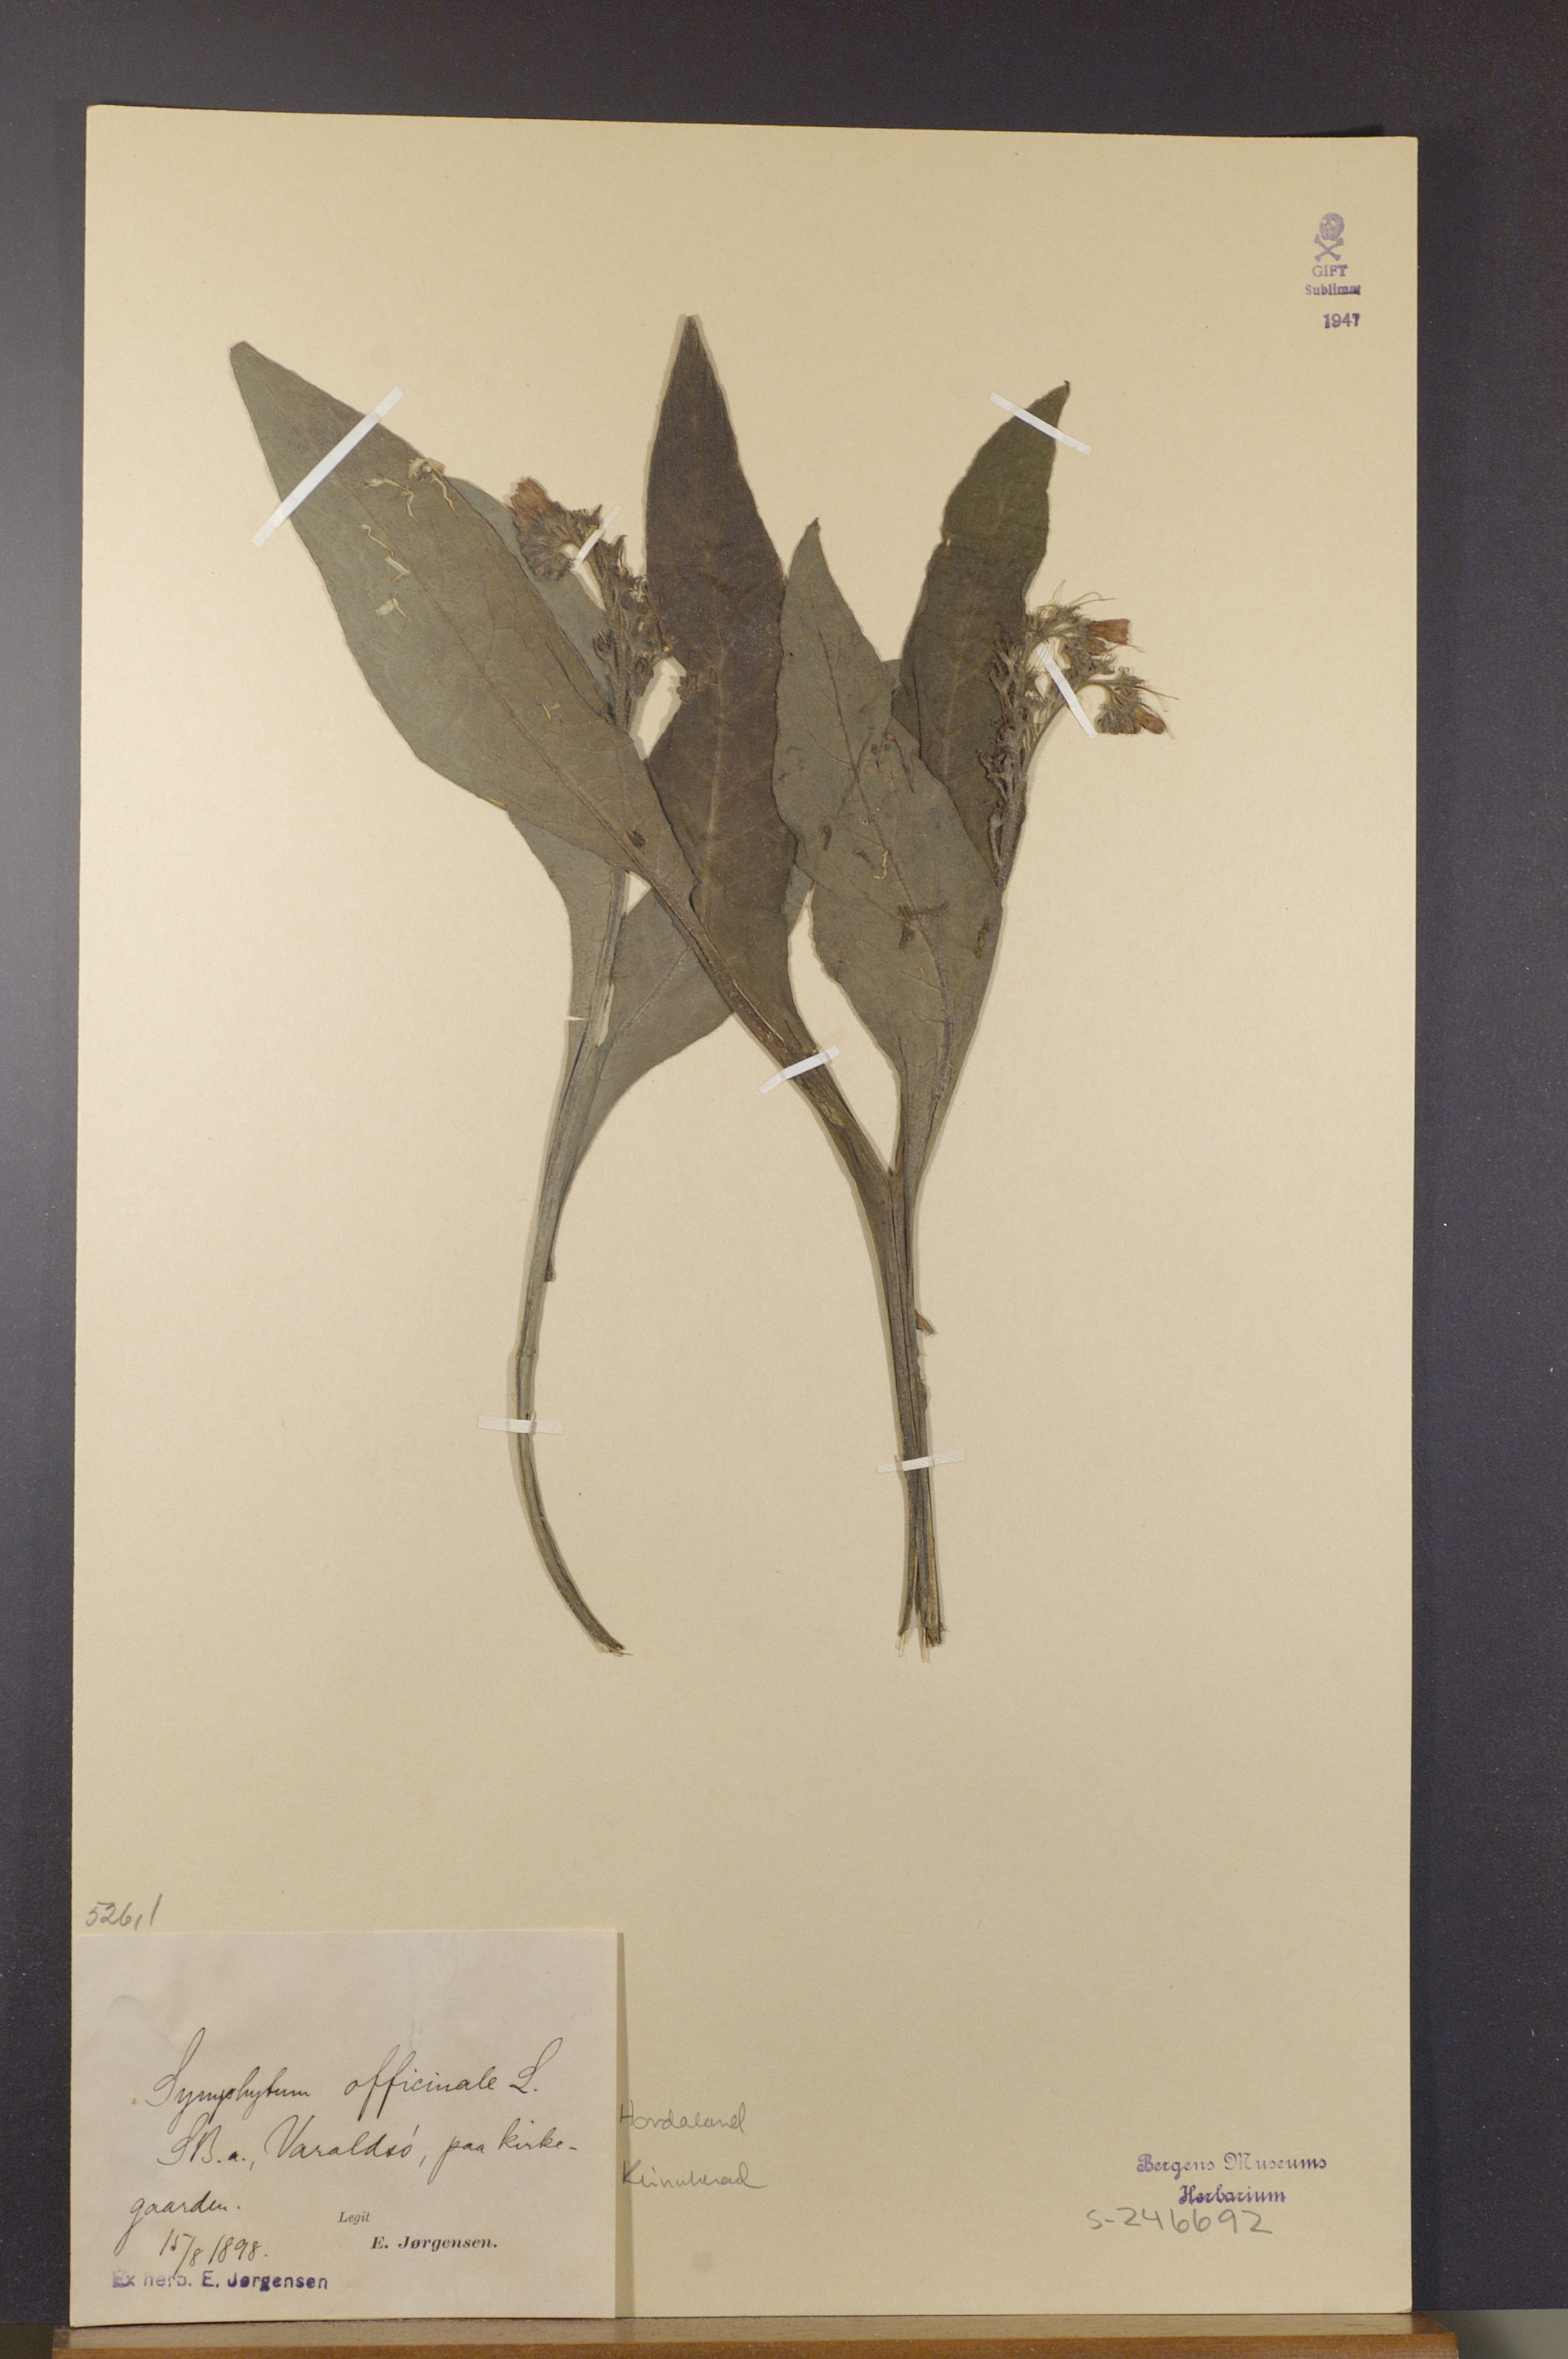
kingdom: Plantae
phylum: Tracheophyta
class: Magnoliopsida
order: Boraginales
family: Boraginaceae
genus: Symphytum
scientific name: Symphytum officinale
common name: Common comfrey
